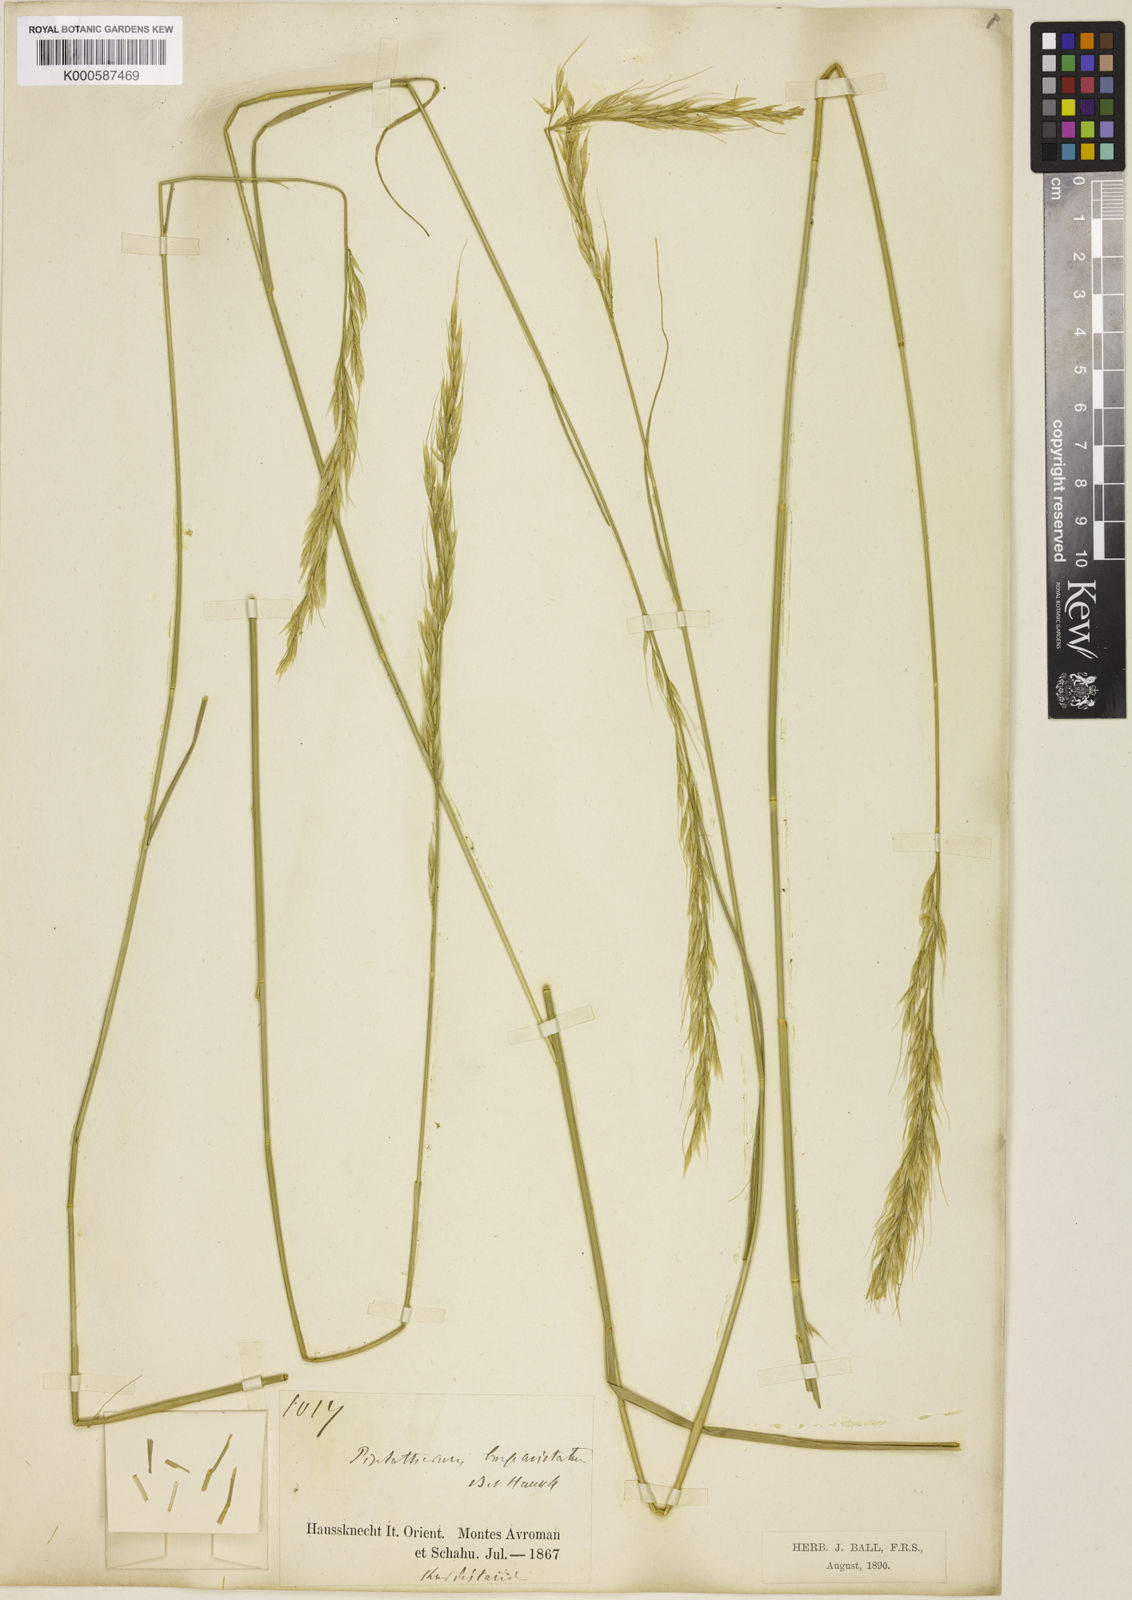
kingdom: Plantae
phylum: Tracheophyta
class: Liliopsida
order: Poales
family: Poaceae
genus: Achnatherum
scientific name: Achnatherum turcomanicum
